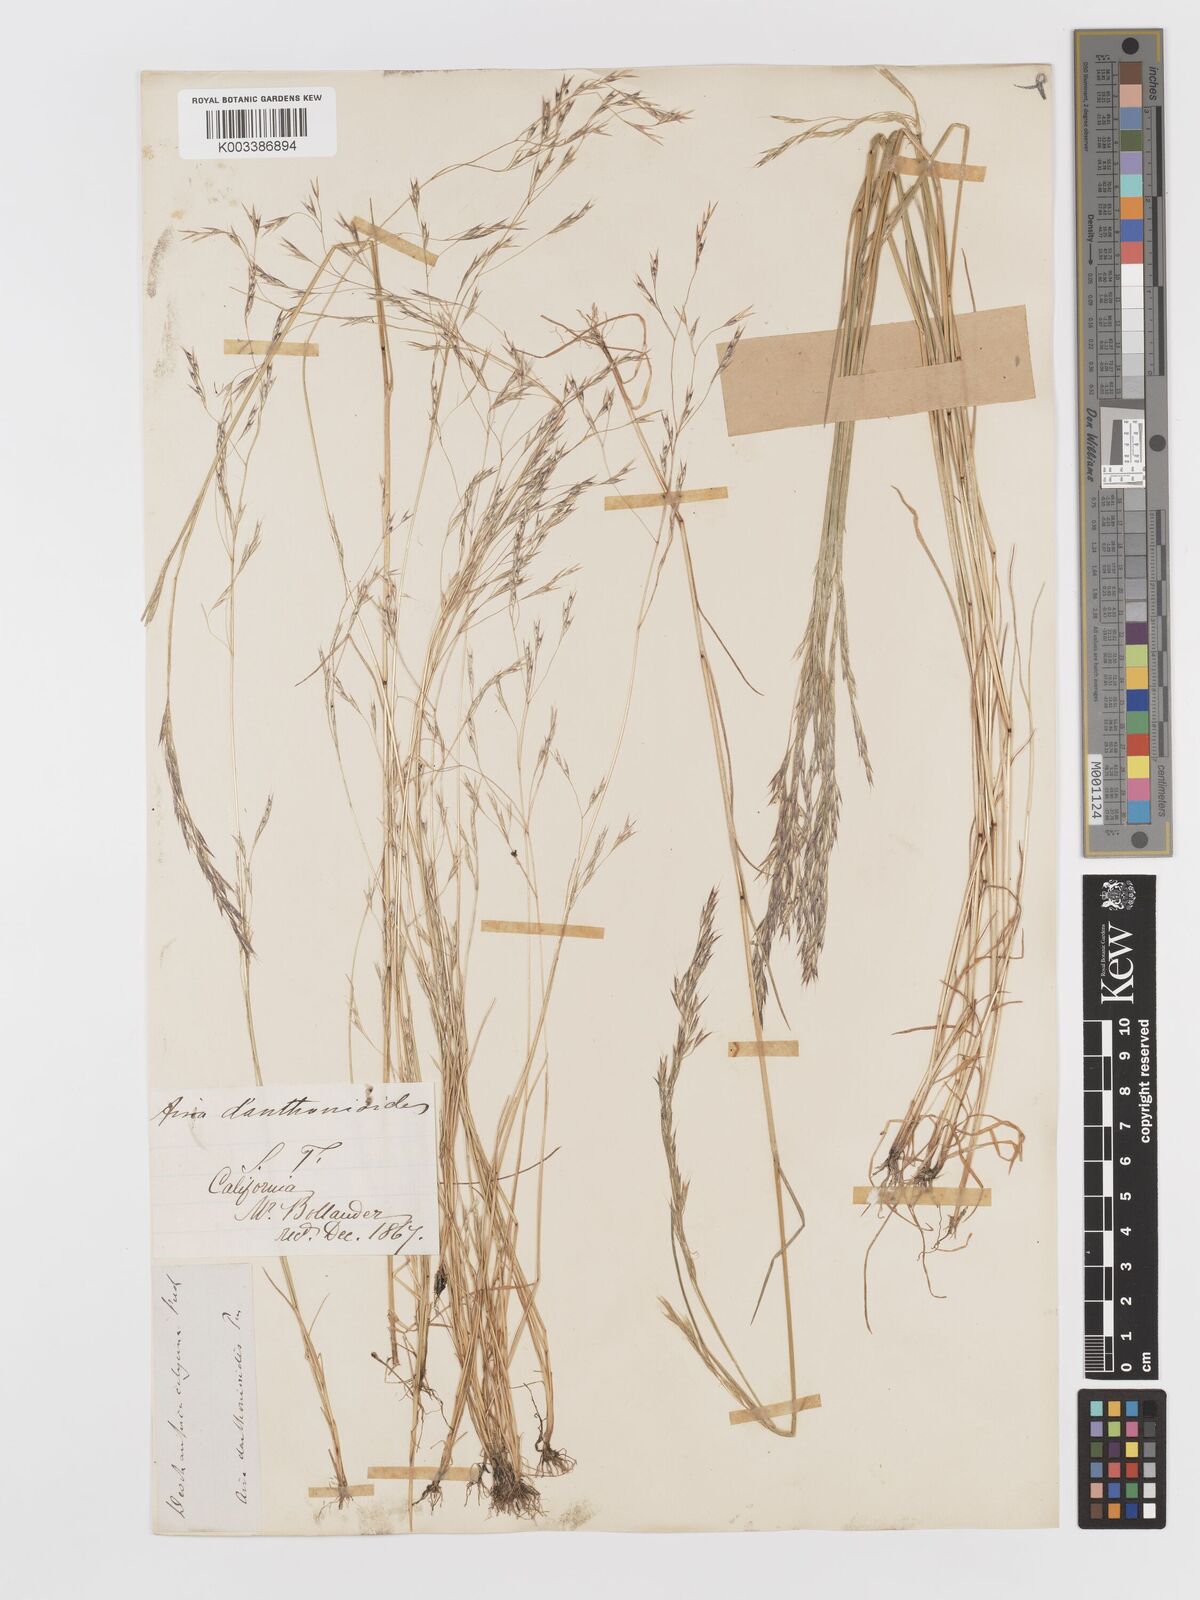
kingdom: Plantae
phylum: Tracheophyta
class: Liliopsida
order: Poales
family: Poaceae
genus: Deschampsia
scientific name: Deschampsia danthonioides
